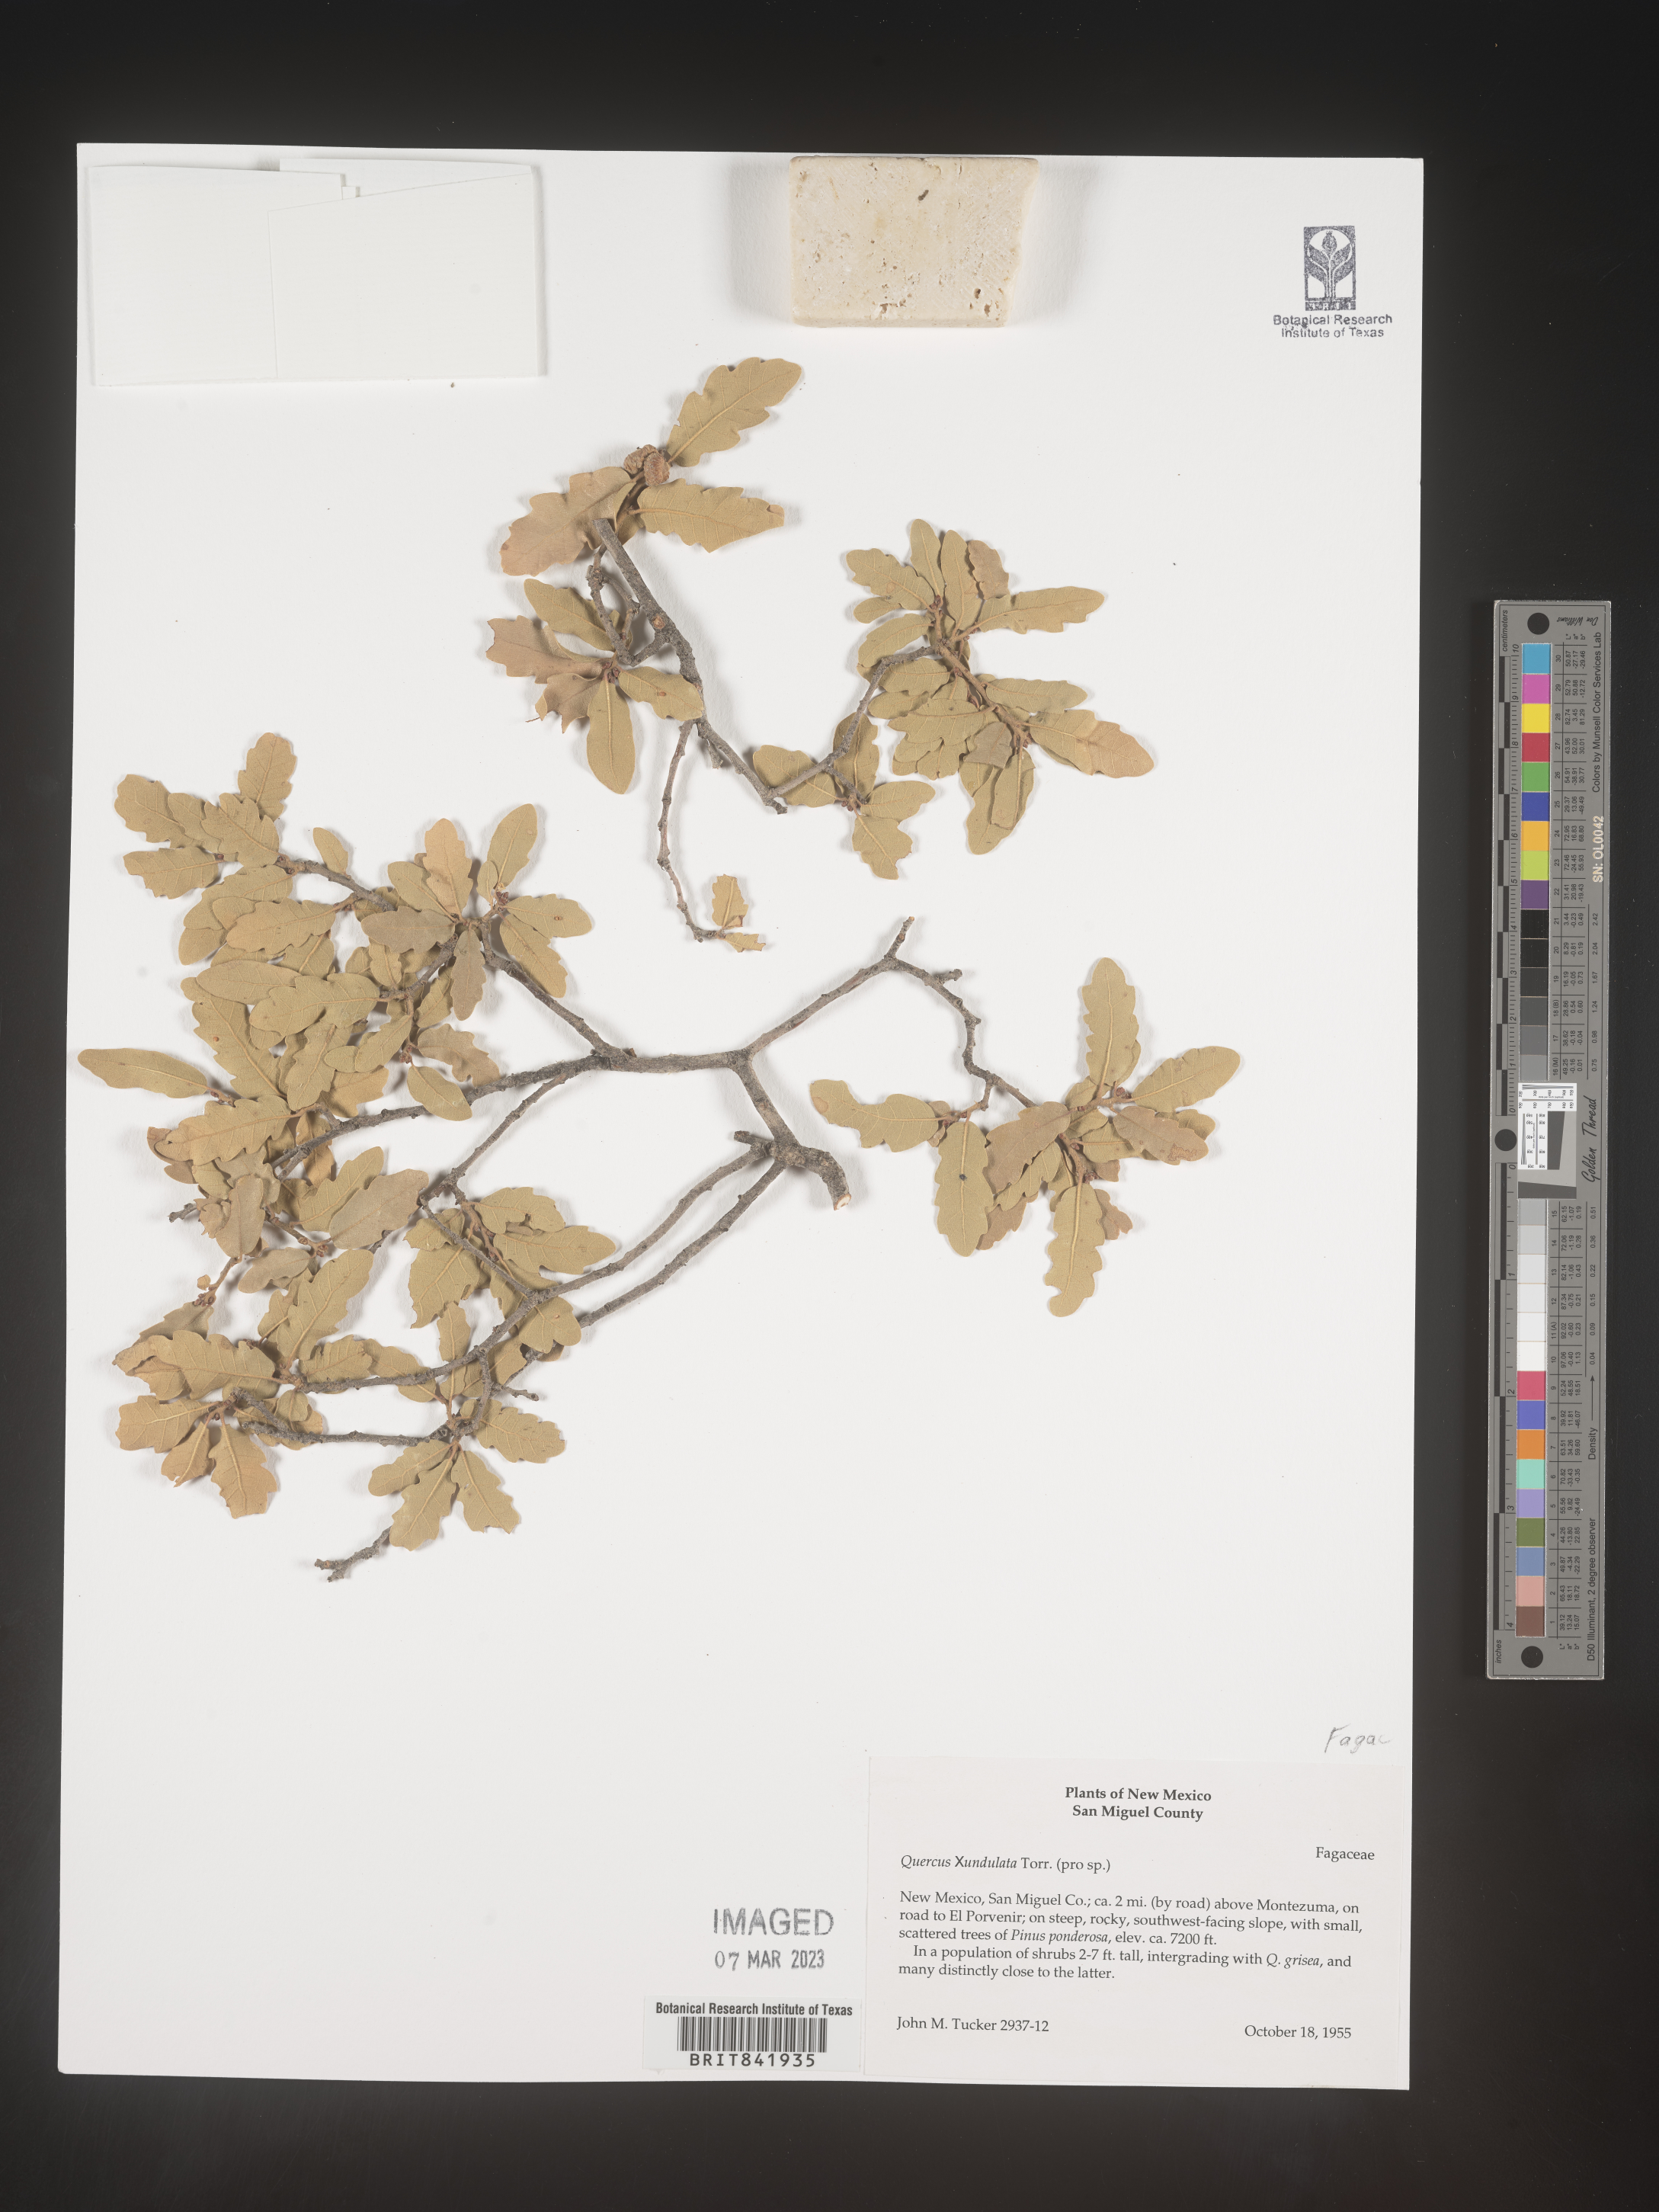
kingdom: Plantae
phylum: Tracheophyta
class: Magnoliopsida
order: Fagales
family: Fagaceae
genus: Quercus
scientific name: Quercus undulata
